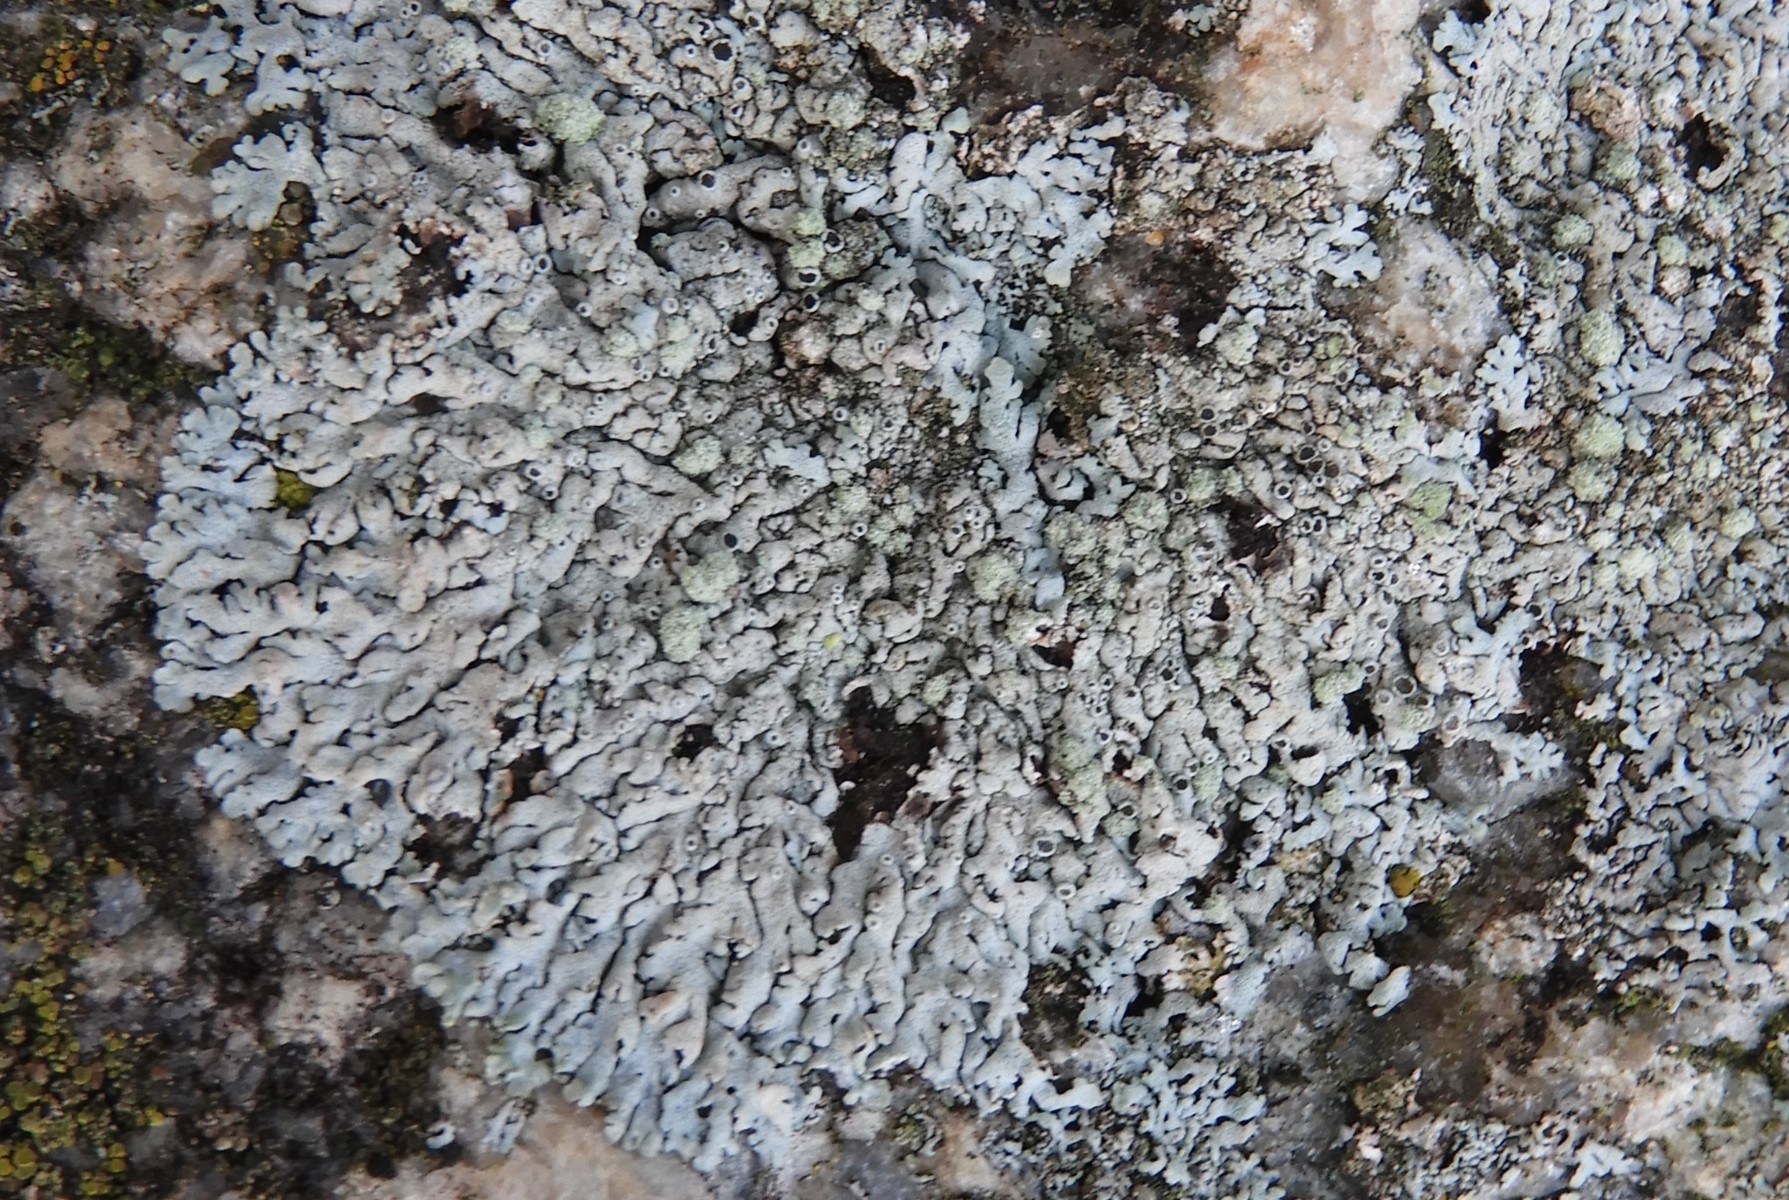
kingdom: Fungi
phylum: Ascomycota
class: Lecanoromycetes
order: Caliciales
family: Physciaceae
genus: Physcia
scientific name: Physcia caesia
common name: blågrå rosetlav
